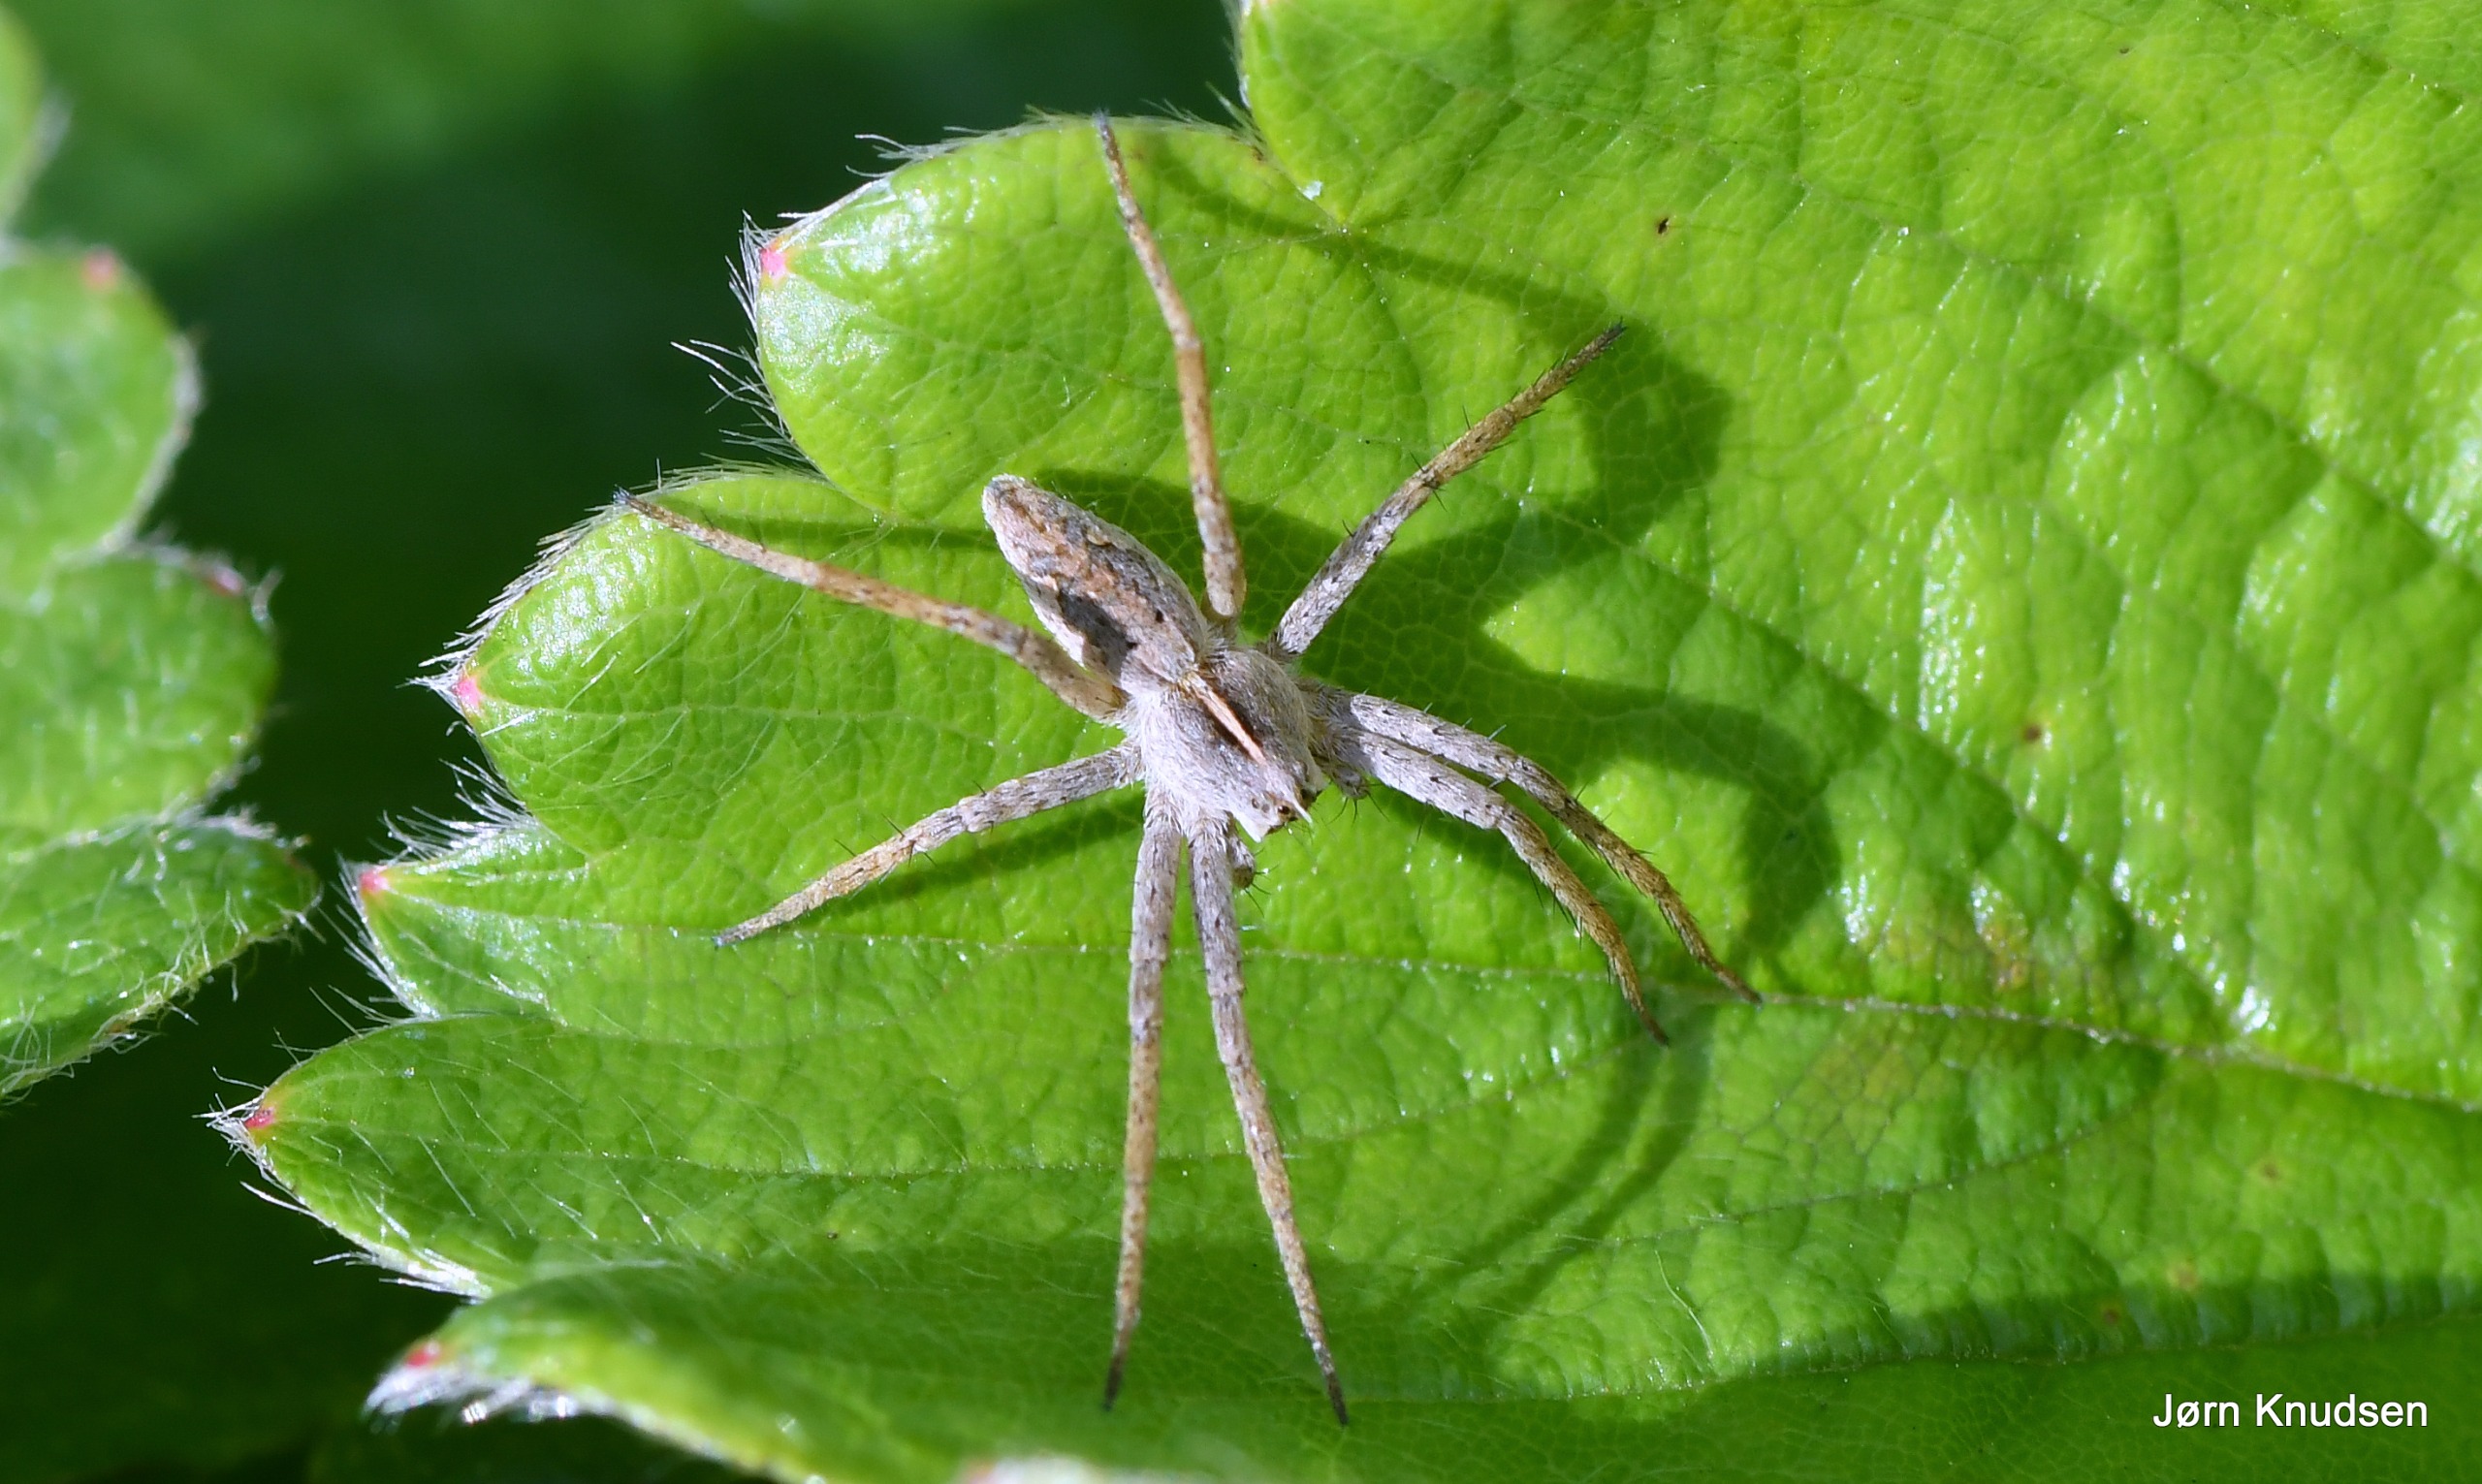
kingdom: Animalia
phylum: Arthropoda
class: Arachnida
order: Araneae
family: Pisauridae
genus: Pisaura
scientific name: Pisaura mirabilis
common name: Almindelig rovedderkop
